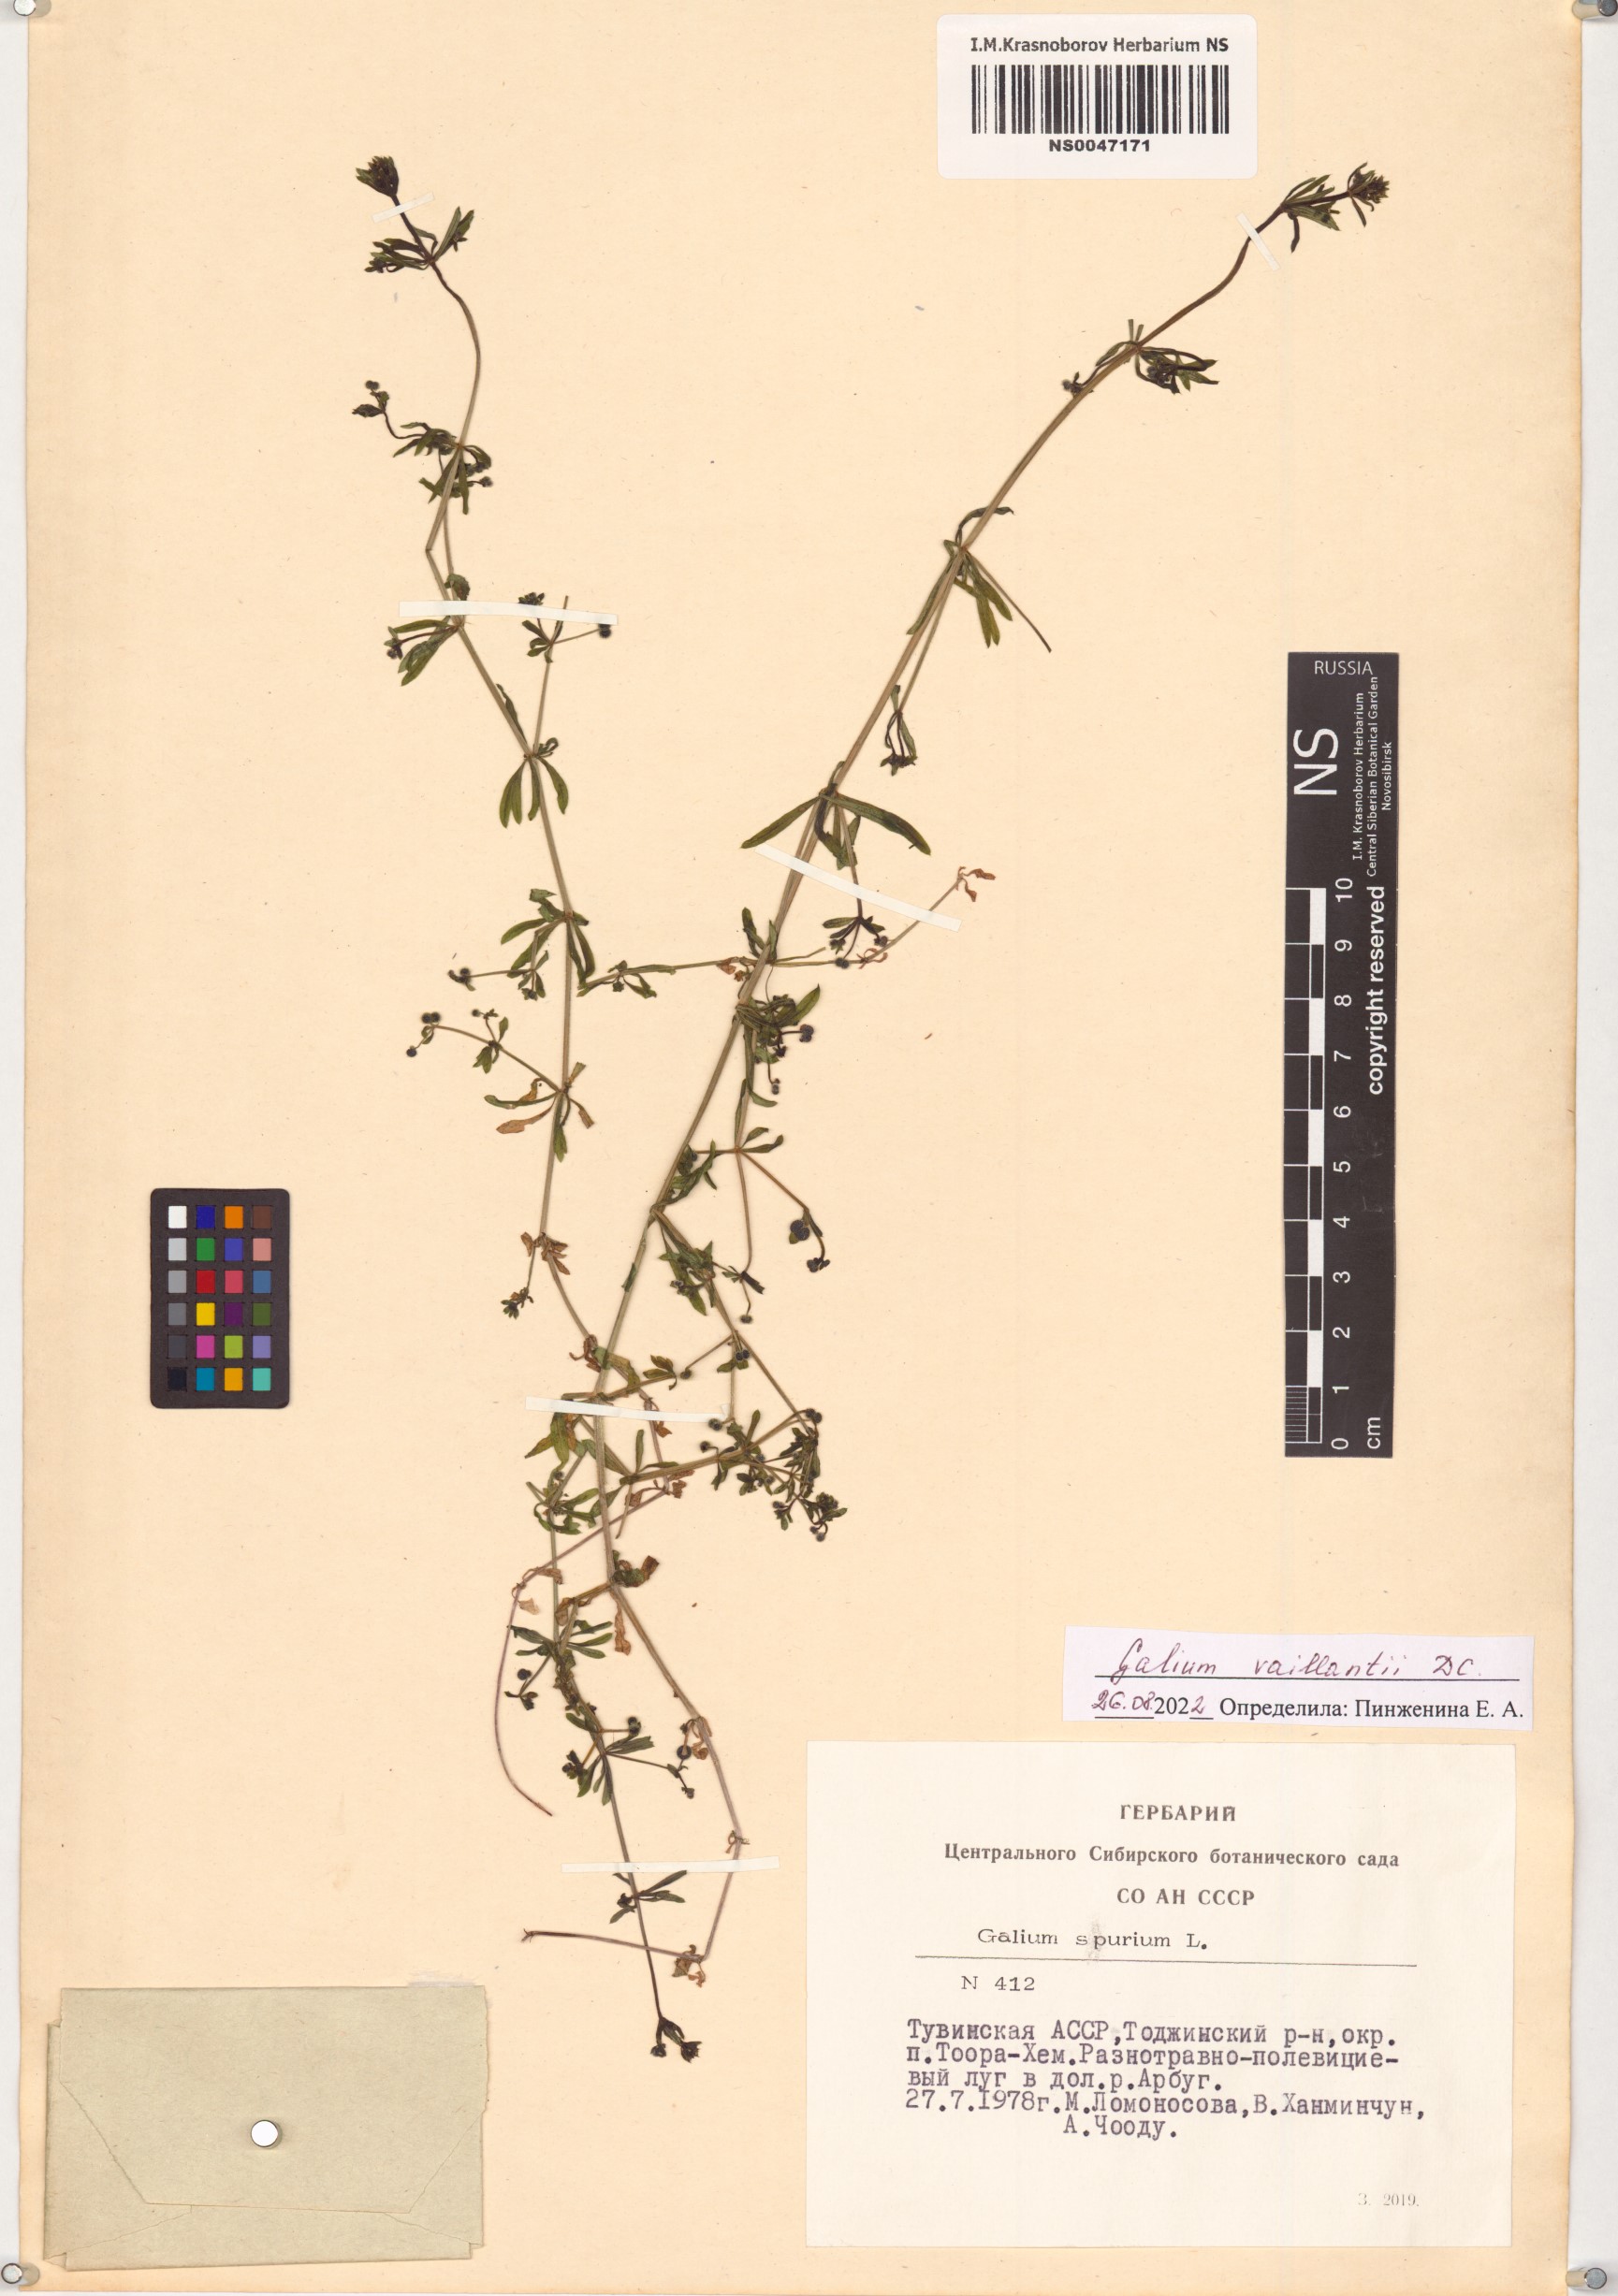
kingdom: Plantae
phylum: Tracheophyta
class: Magnoliopsida
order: Gentianales
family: Rubiaceae
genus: Galium
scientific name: Galium spurium
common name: False cleavers
